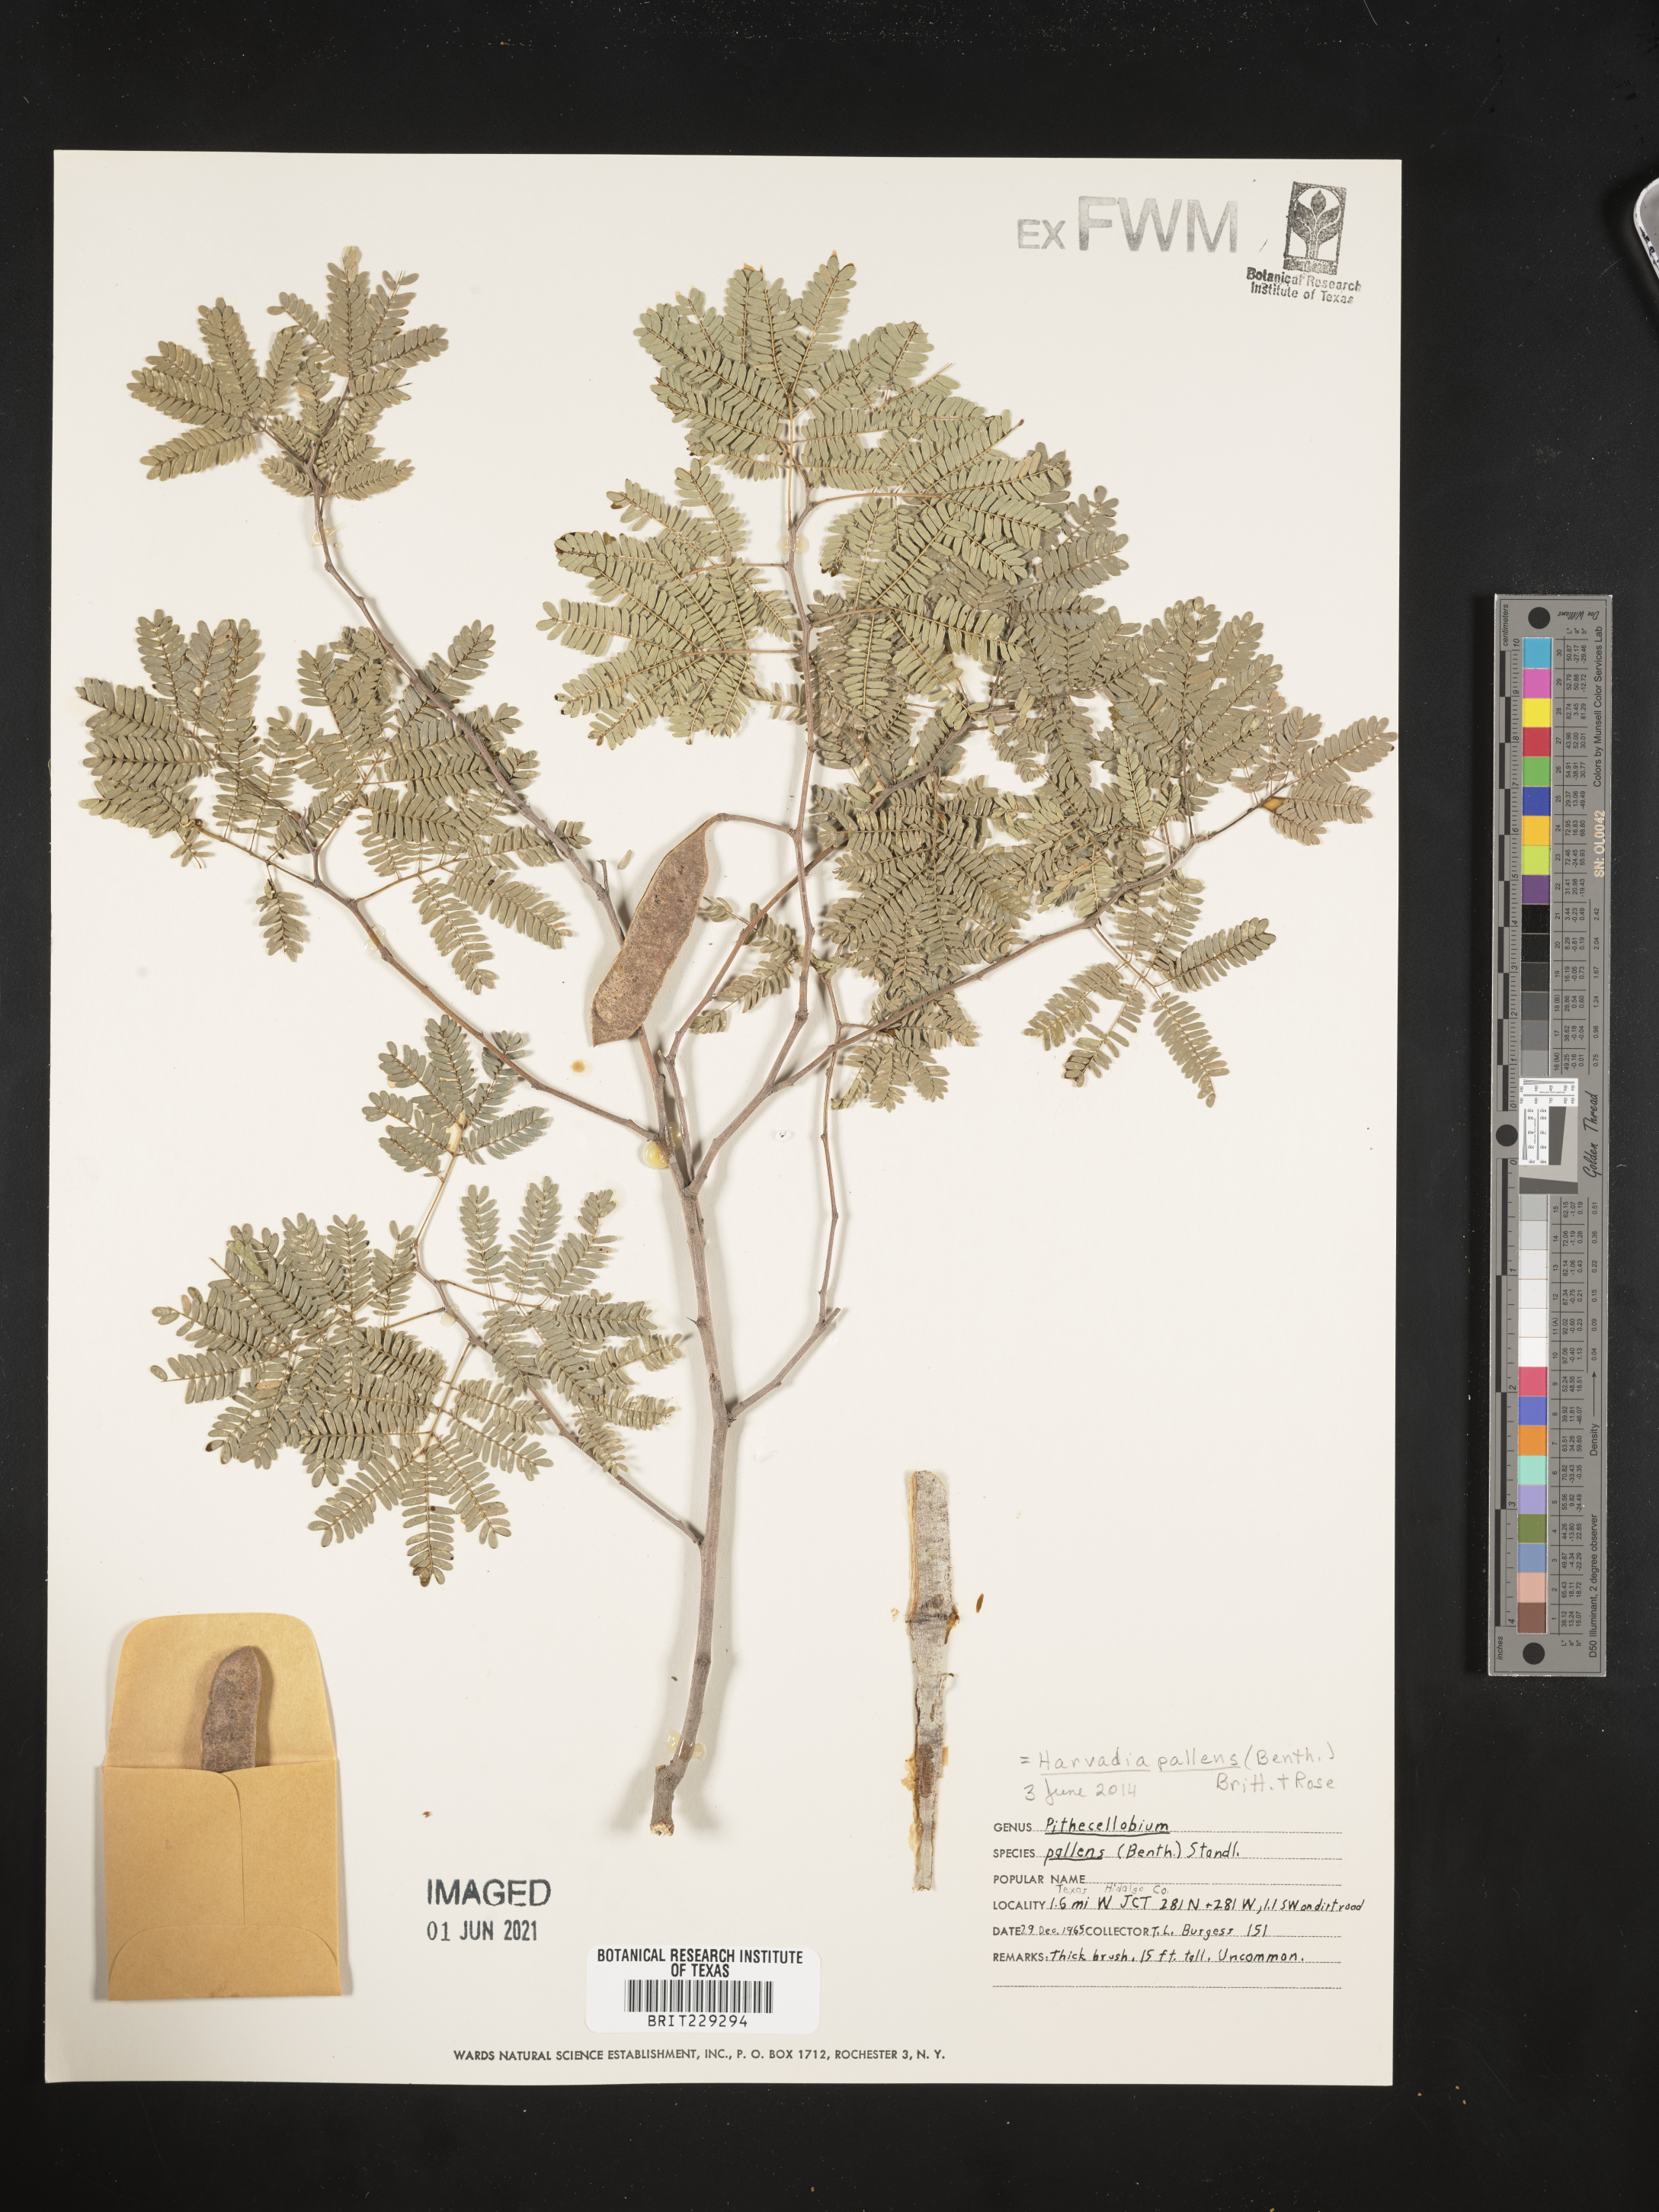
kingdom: Plantae
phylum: Tracheophyta
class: Magnoliopsida
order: Fabales
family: Fabaceae
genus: Havardia
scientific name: Havardia pallens
